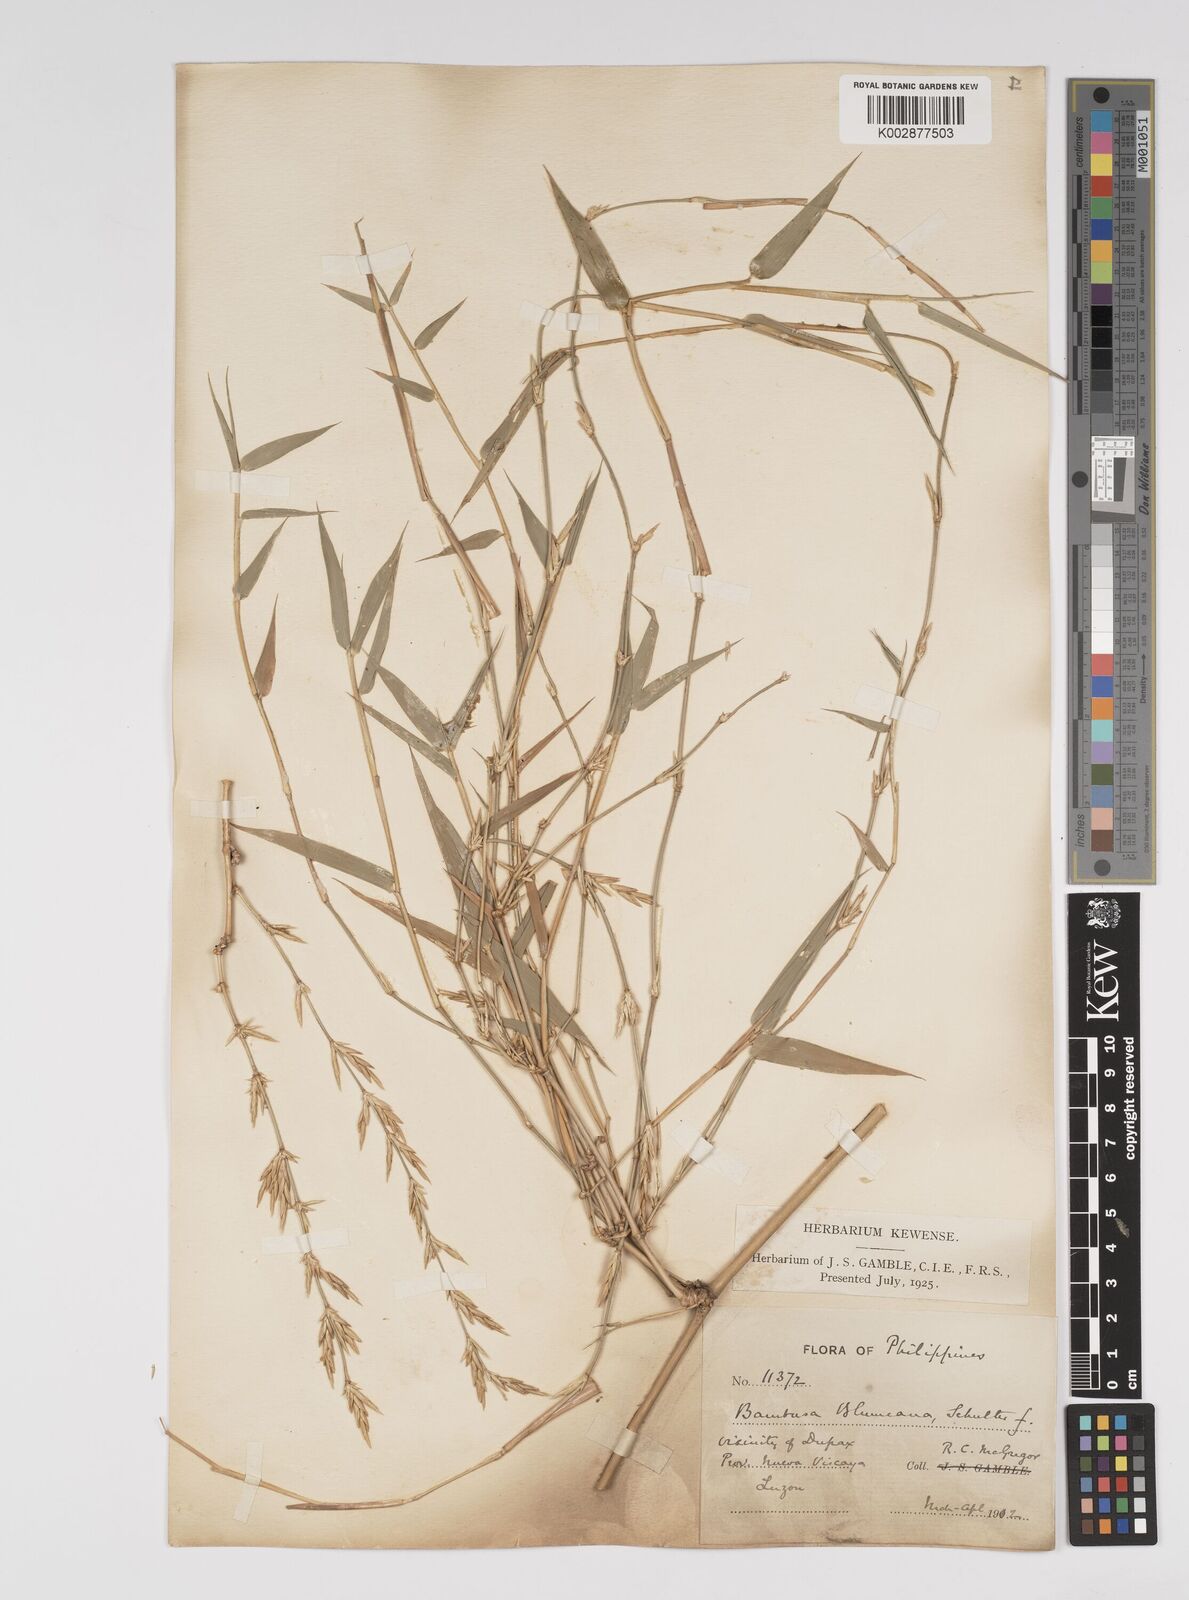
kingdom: Plantae
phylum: Tracheophyta
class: Liliopsida
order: Poales
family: Poaceae
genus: Bambusa
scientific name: Bambusa spinosa
